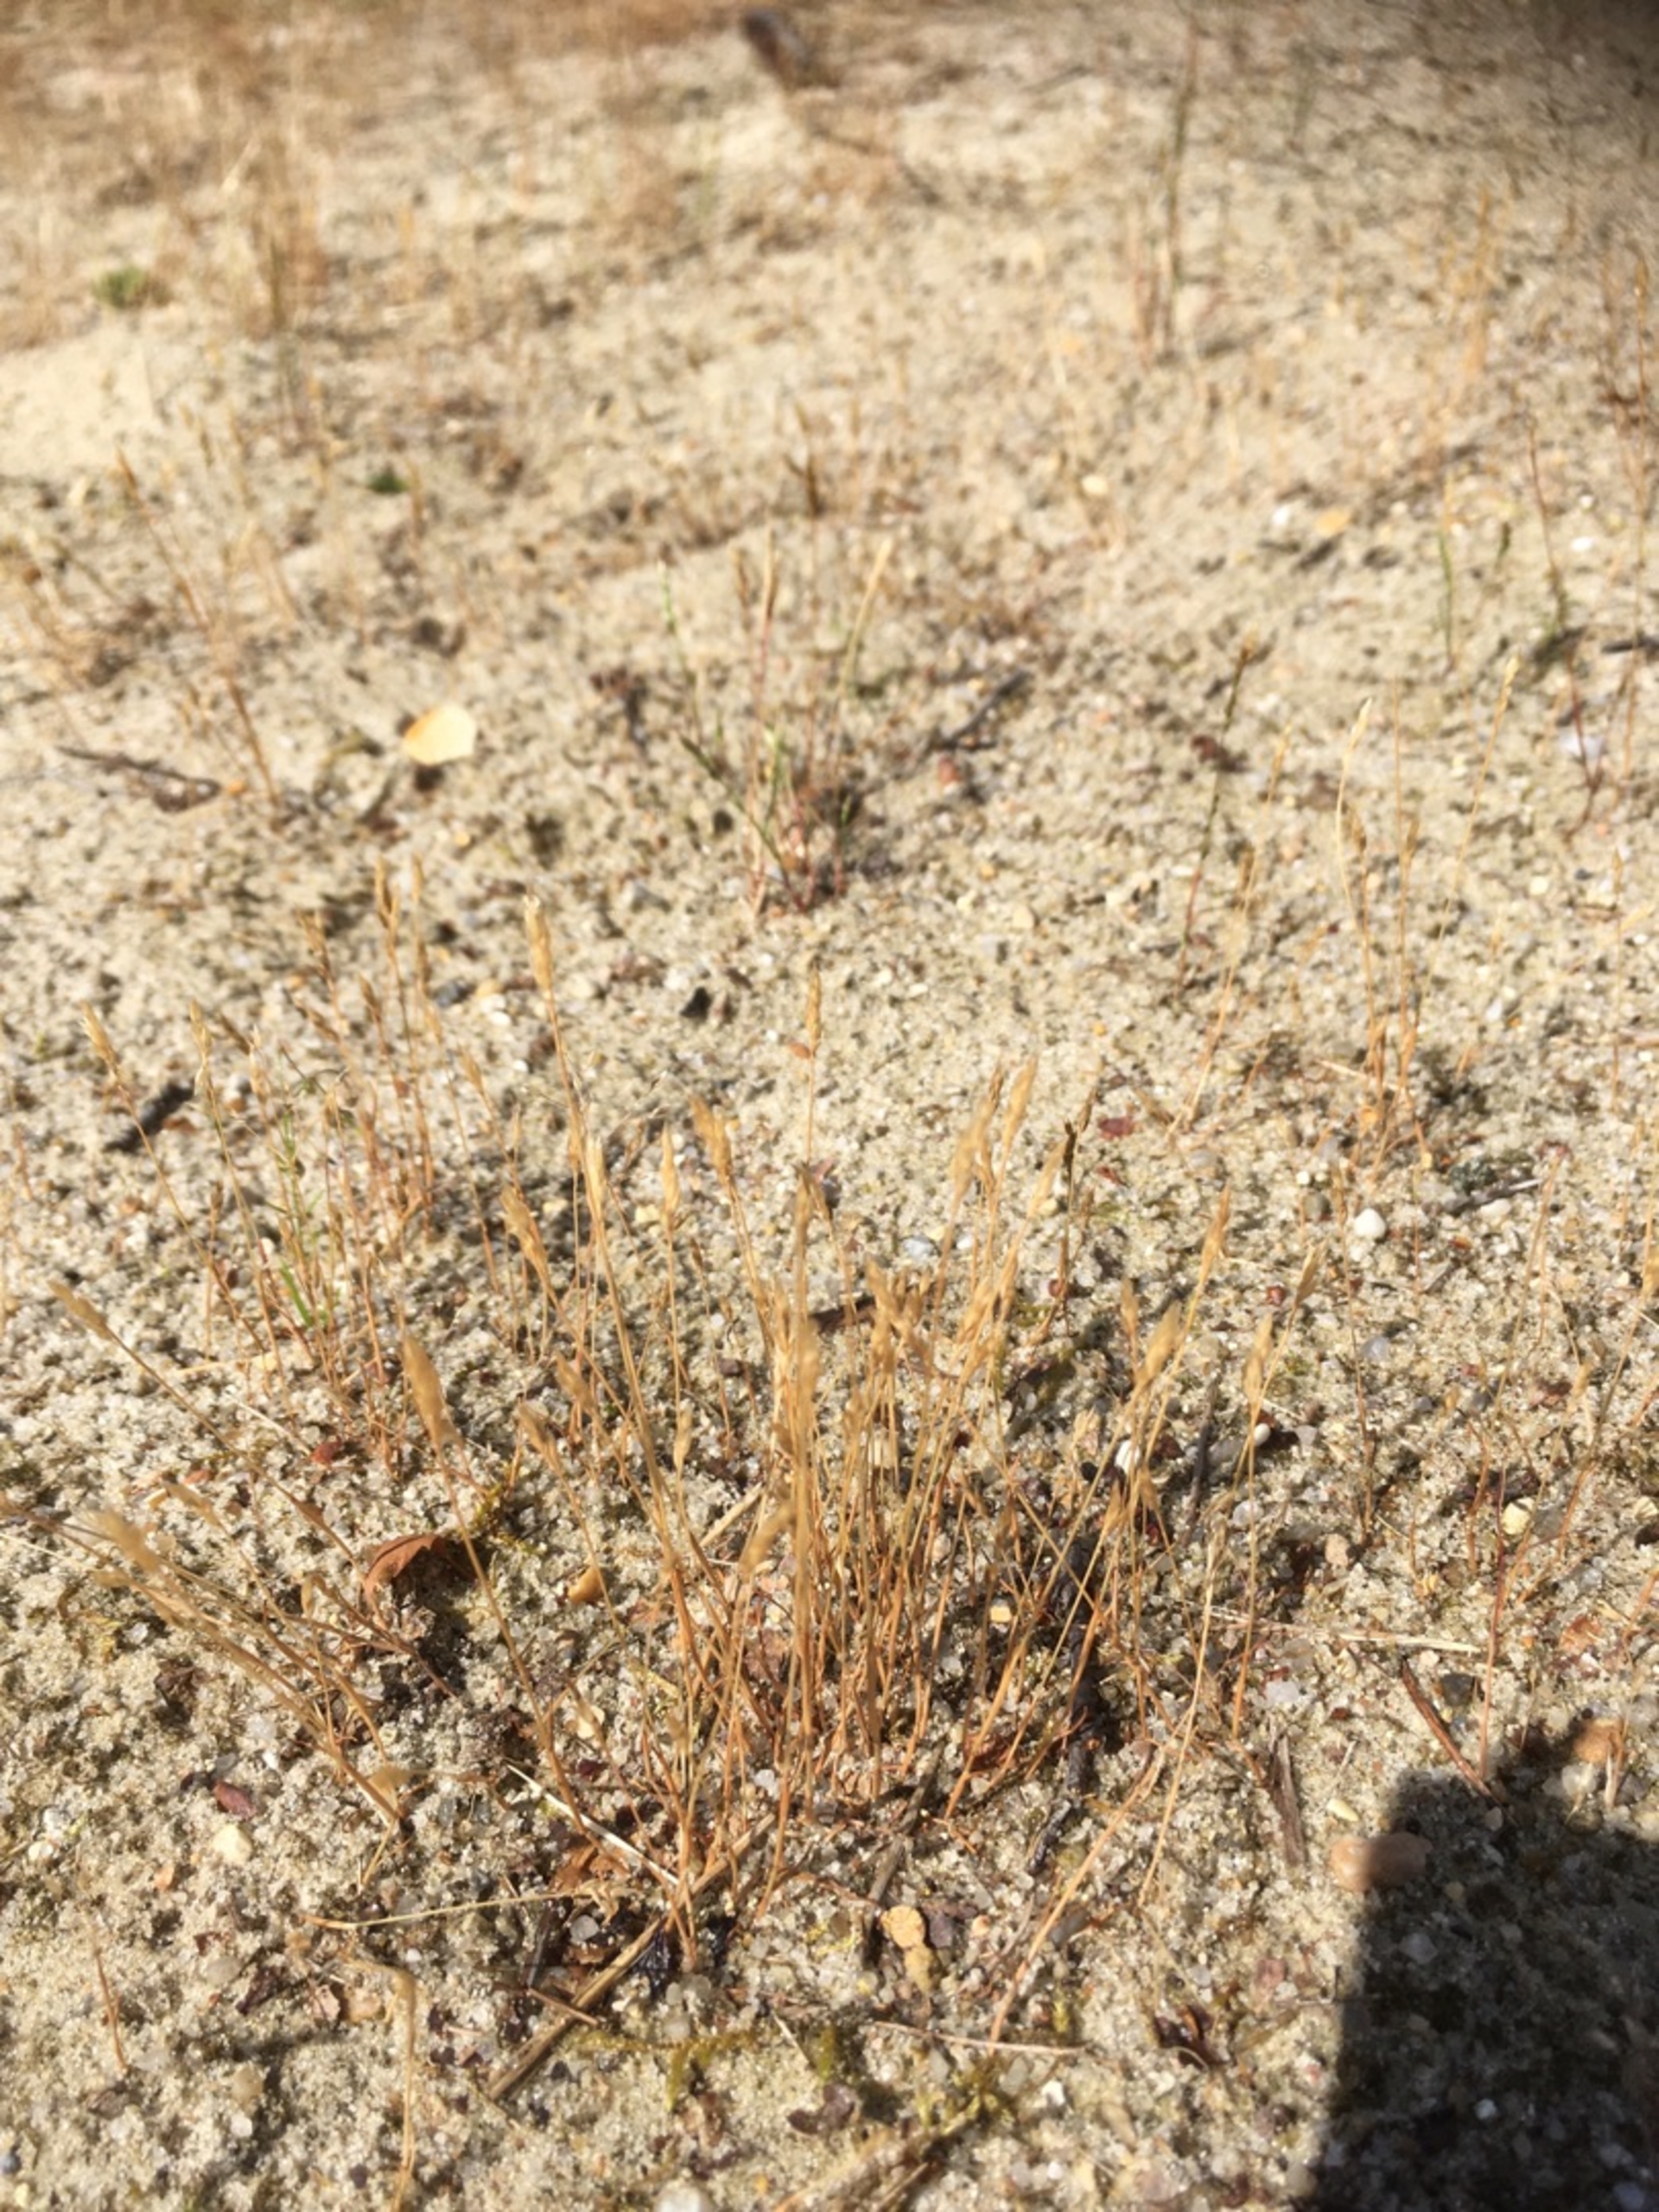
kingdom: Plantae
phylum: Tracheophyta
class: Liliopsida
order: Poales
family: Poaceae
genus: Aira
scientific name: Aira praecox
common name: Tidlig dværgbunke
